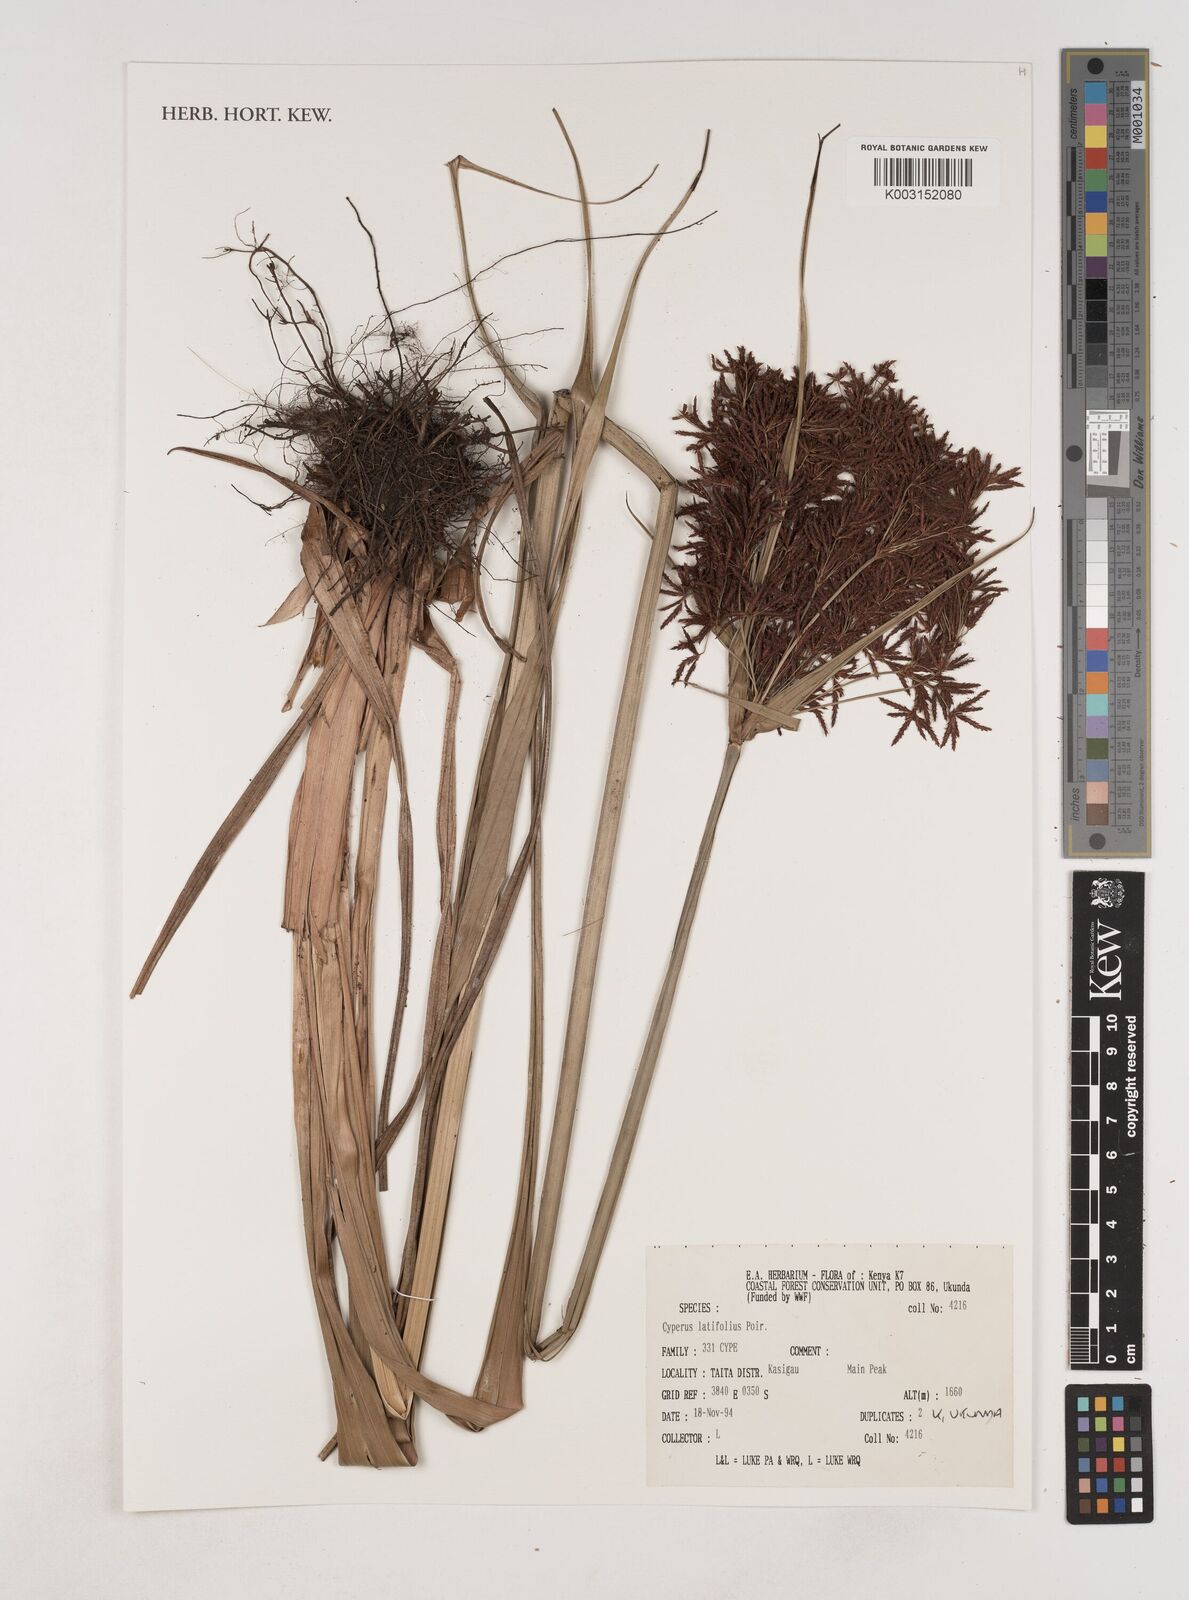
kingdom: Plantae
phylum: Tracheophyta
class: Liliopsida
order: Poales
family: Cyperaceae
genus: Cyperus
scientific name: Cyperus latifolius
